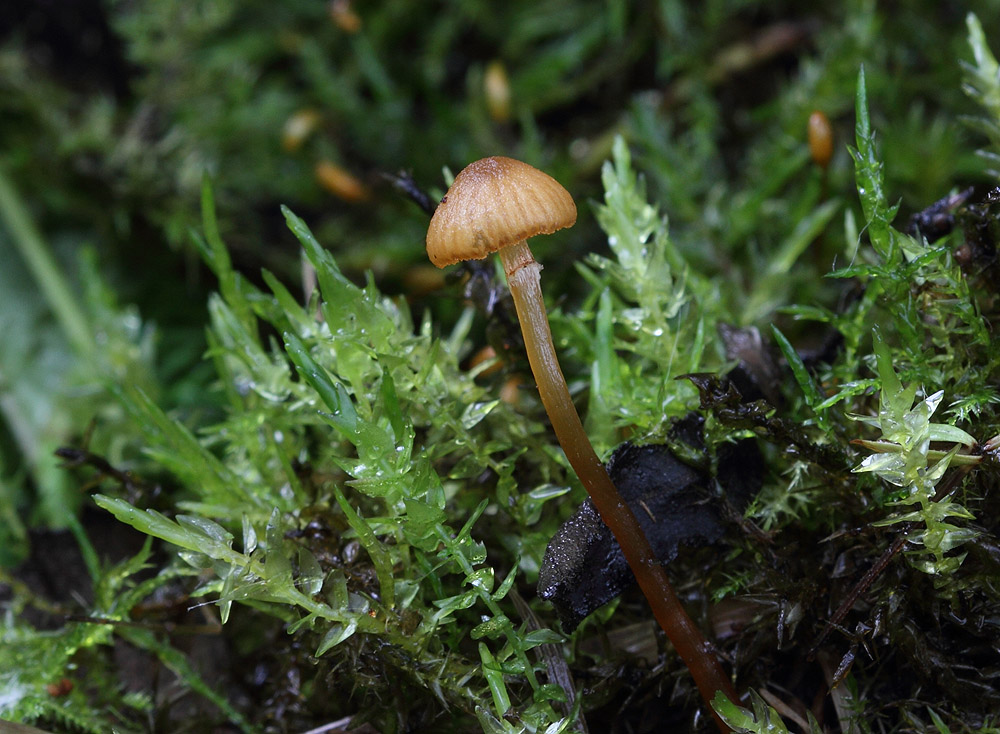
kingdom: Fungi
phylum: Basidiomycota
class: Agaricomycetes
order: Agaricales
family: Hymenogastraceae
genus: Galerina
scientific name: Galerina jaapii
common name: hvidbæltet hjelmhat
